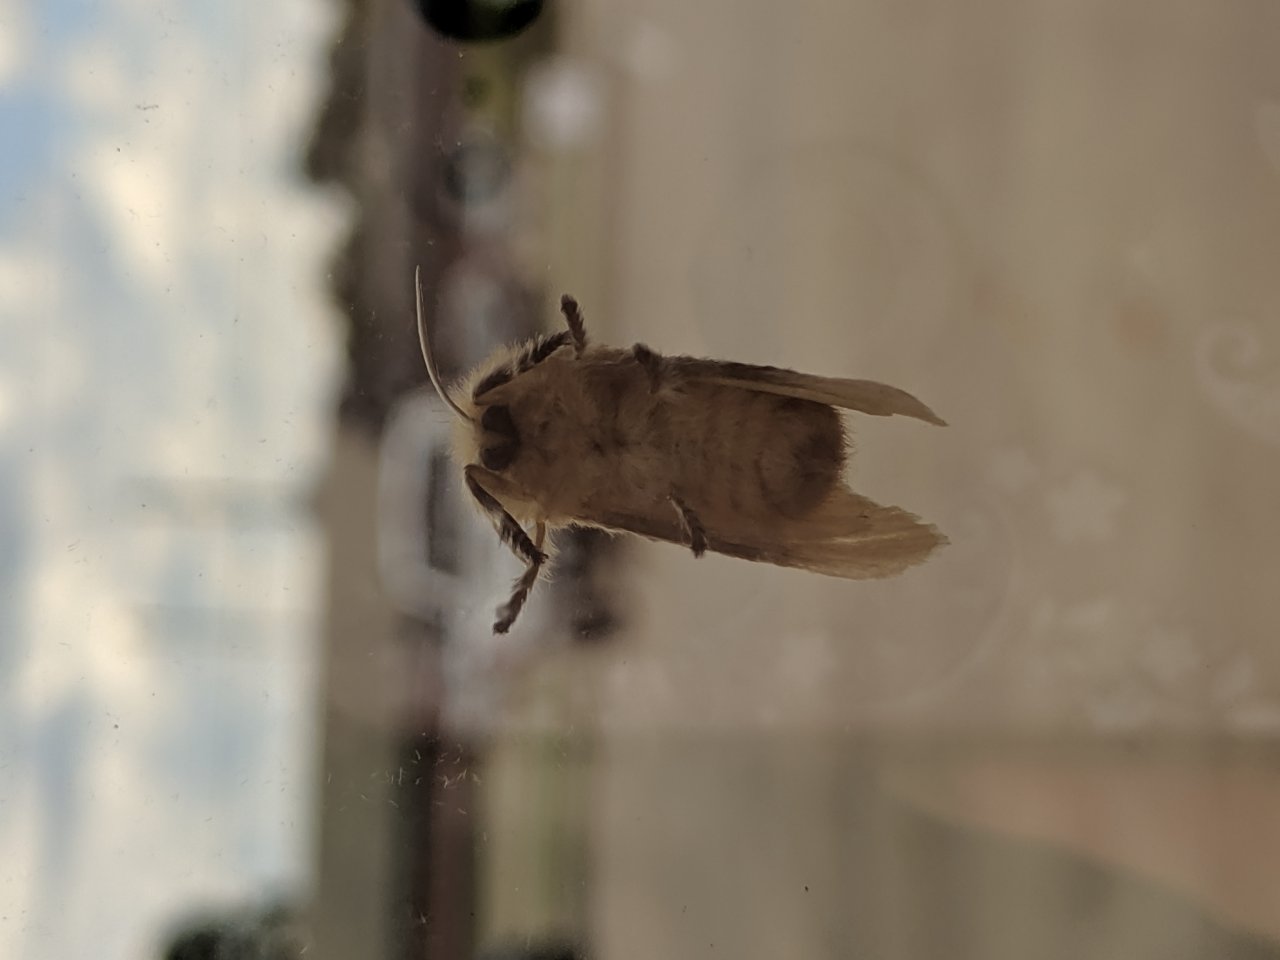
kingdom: Animalia
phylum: Arthropoda
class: Insecta
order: Lepidoptera
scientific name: Lepidoptera
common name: Butterflies
